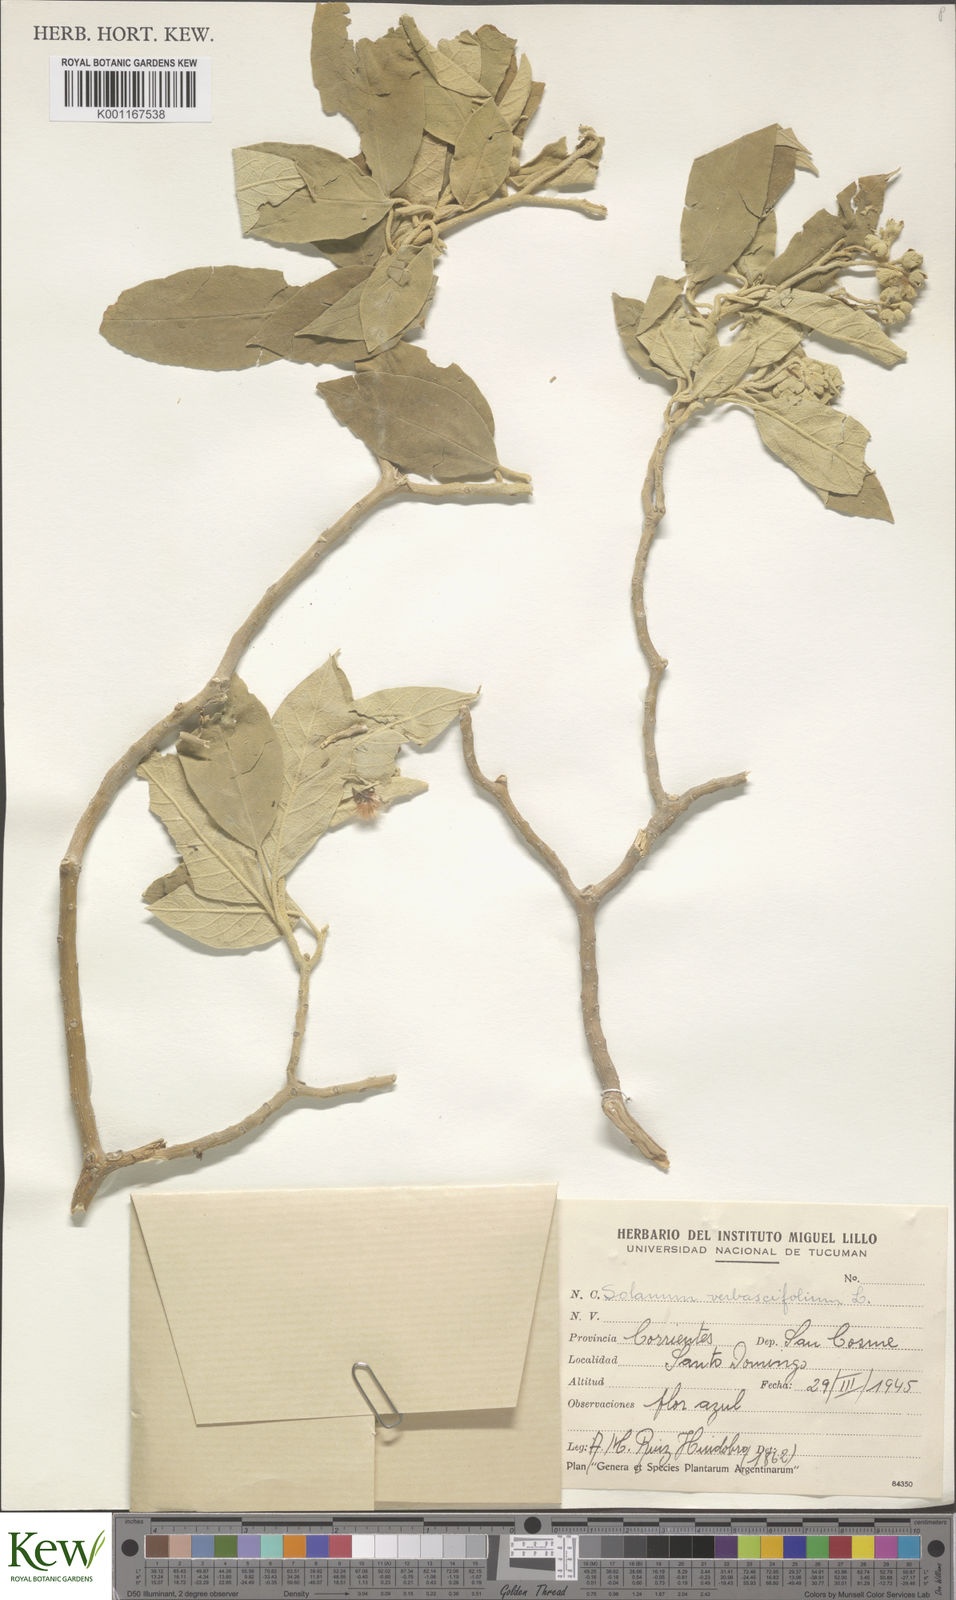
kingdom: Plantae
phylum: Tracheophyta
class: Magnoliopsida
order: Solanales
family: Solanaceae
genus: Solanum
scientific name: Solanum erianthum
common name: Tobacco-tree
